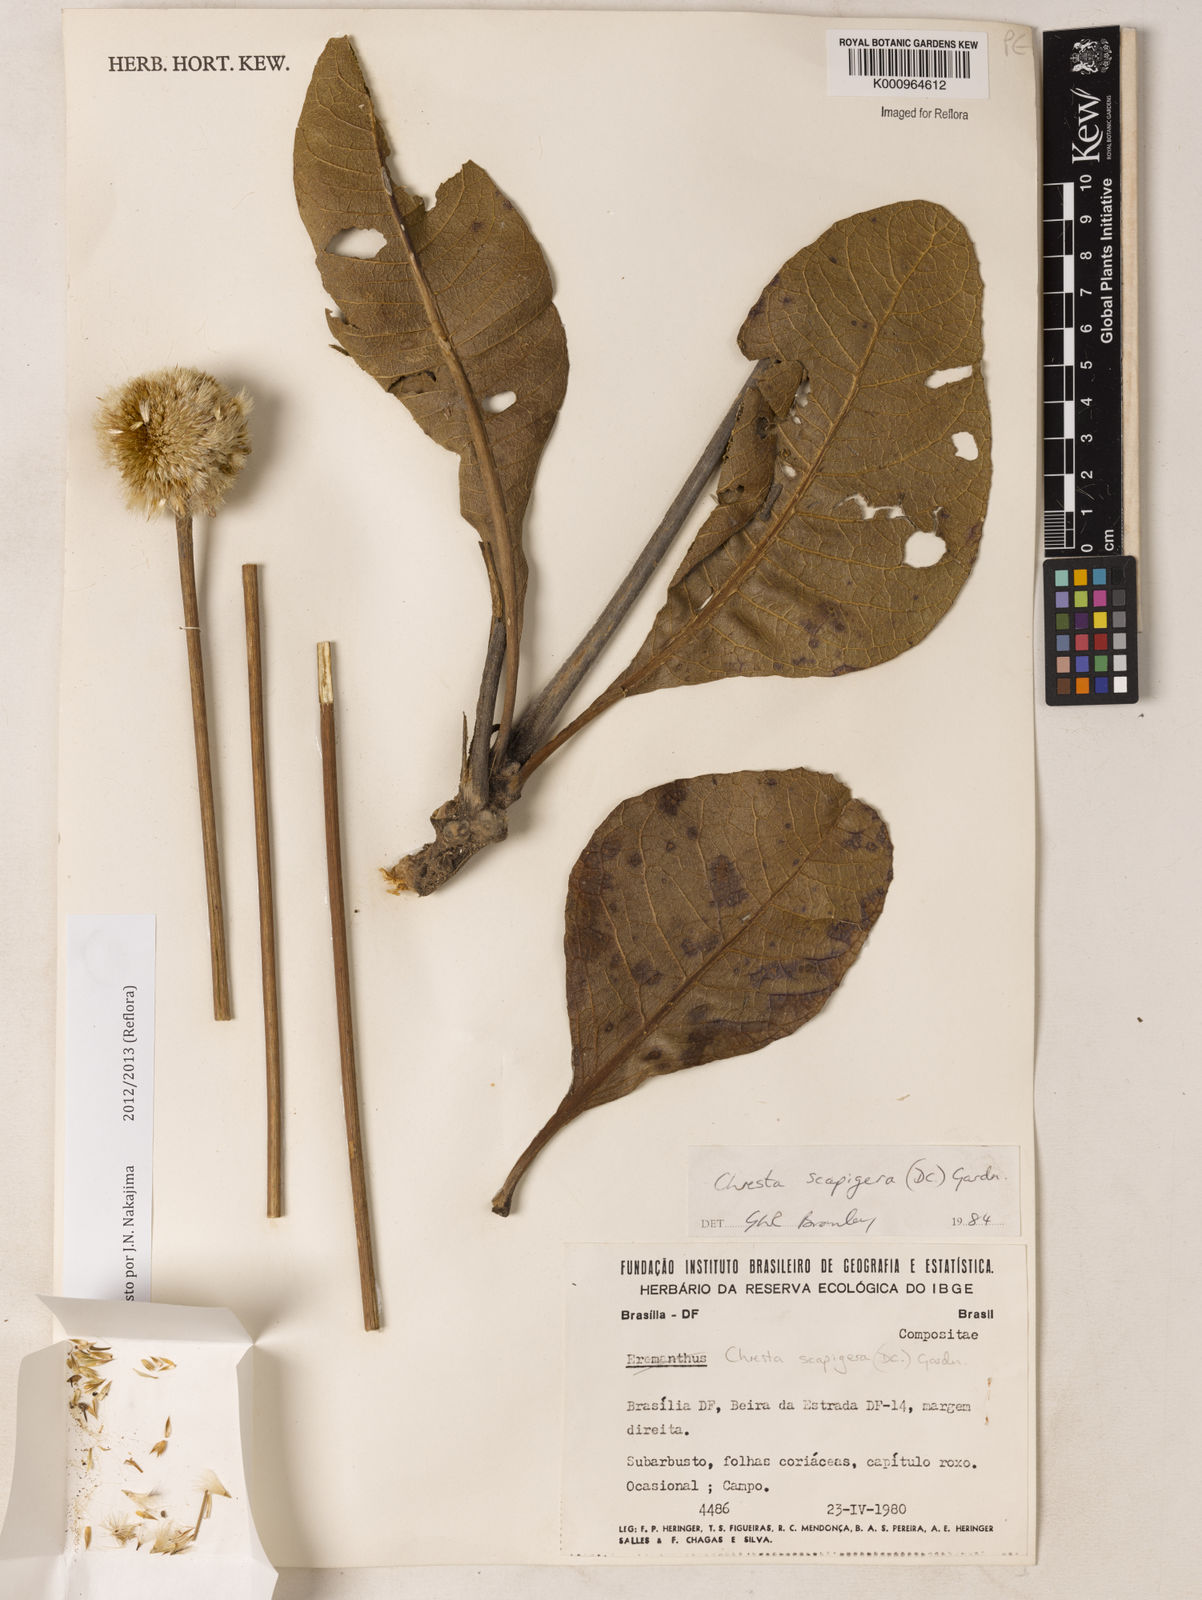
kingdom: Plantae
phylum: Tracheophyta
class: Magnoliopsida
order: Asterales
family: Asteraceae
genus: Chresta
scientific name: Chresta scapigera
